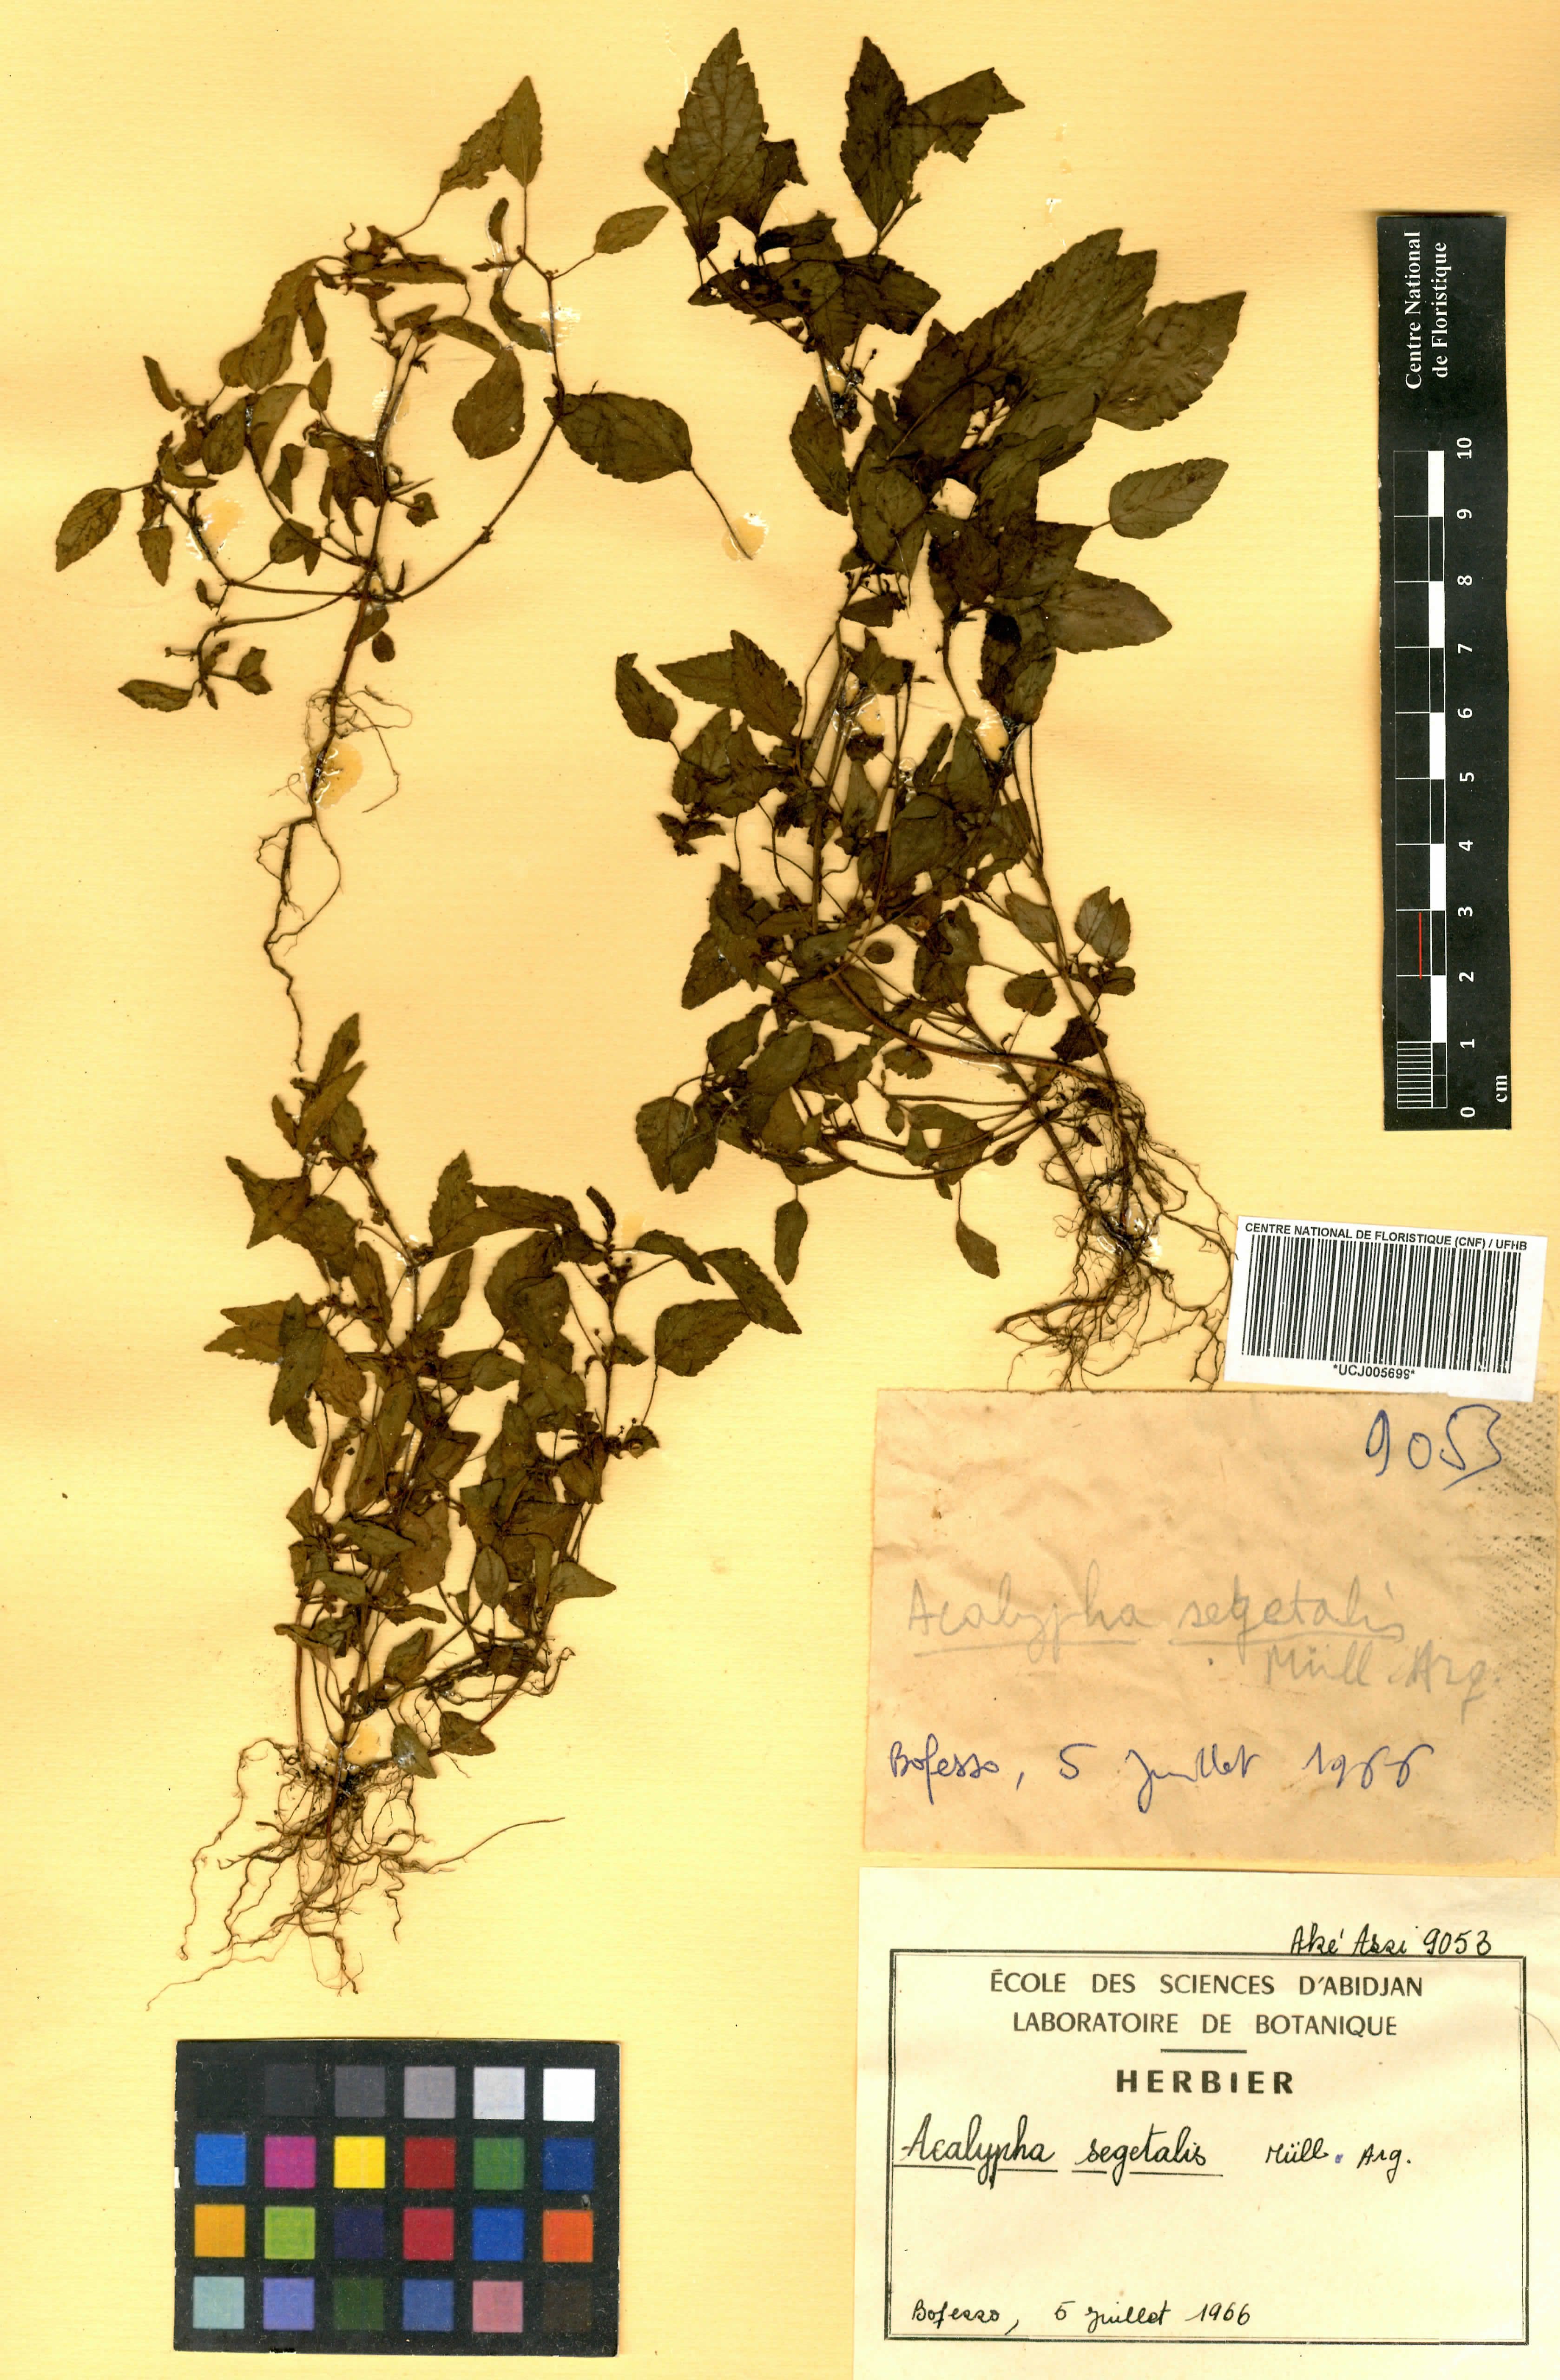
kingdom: Plantae
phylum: Tracheophyta
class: Magnoliopsida
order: Malpighiales
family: Euphorbiaceae
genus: Acalypha
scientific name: Acalypha segetalis
